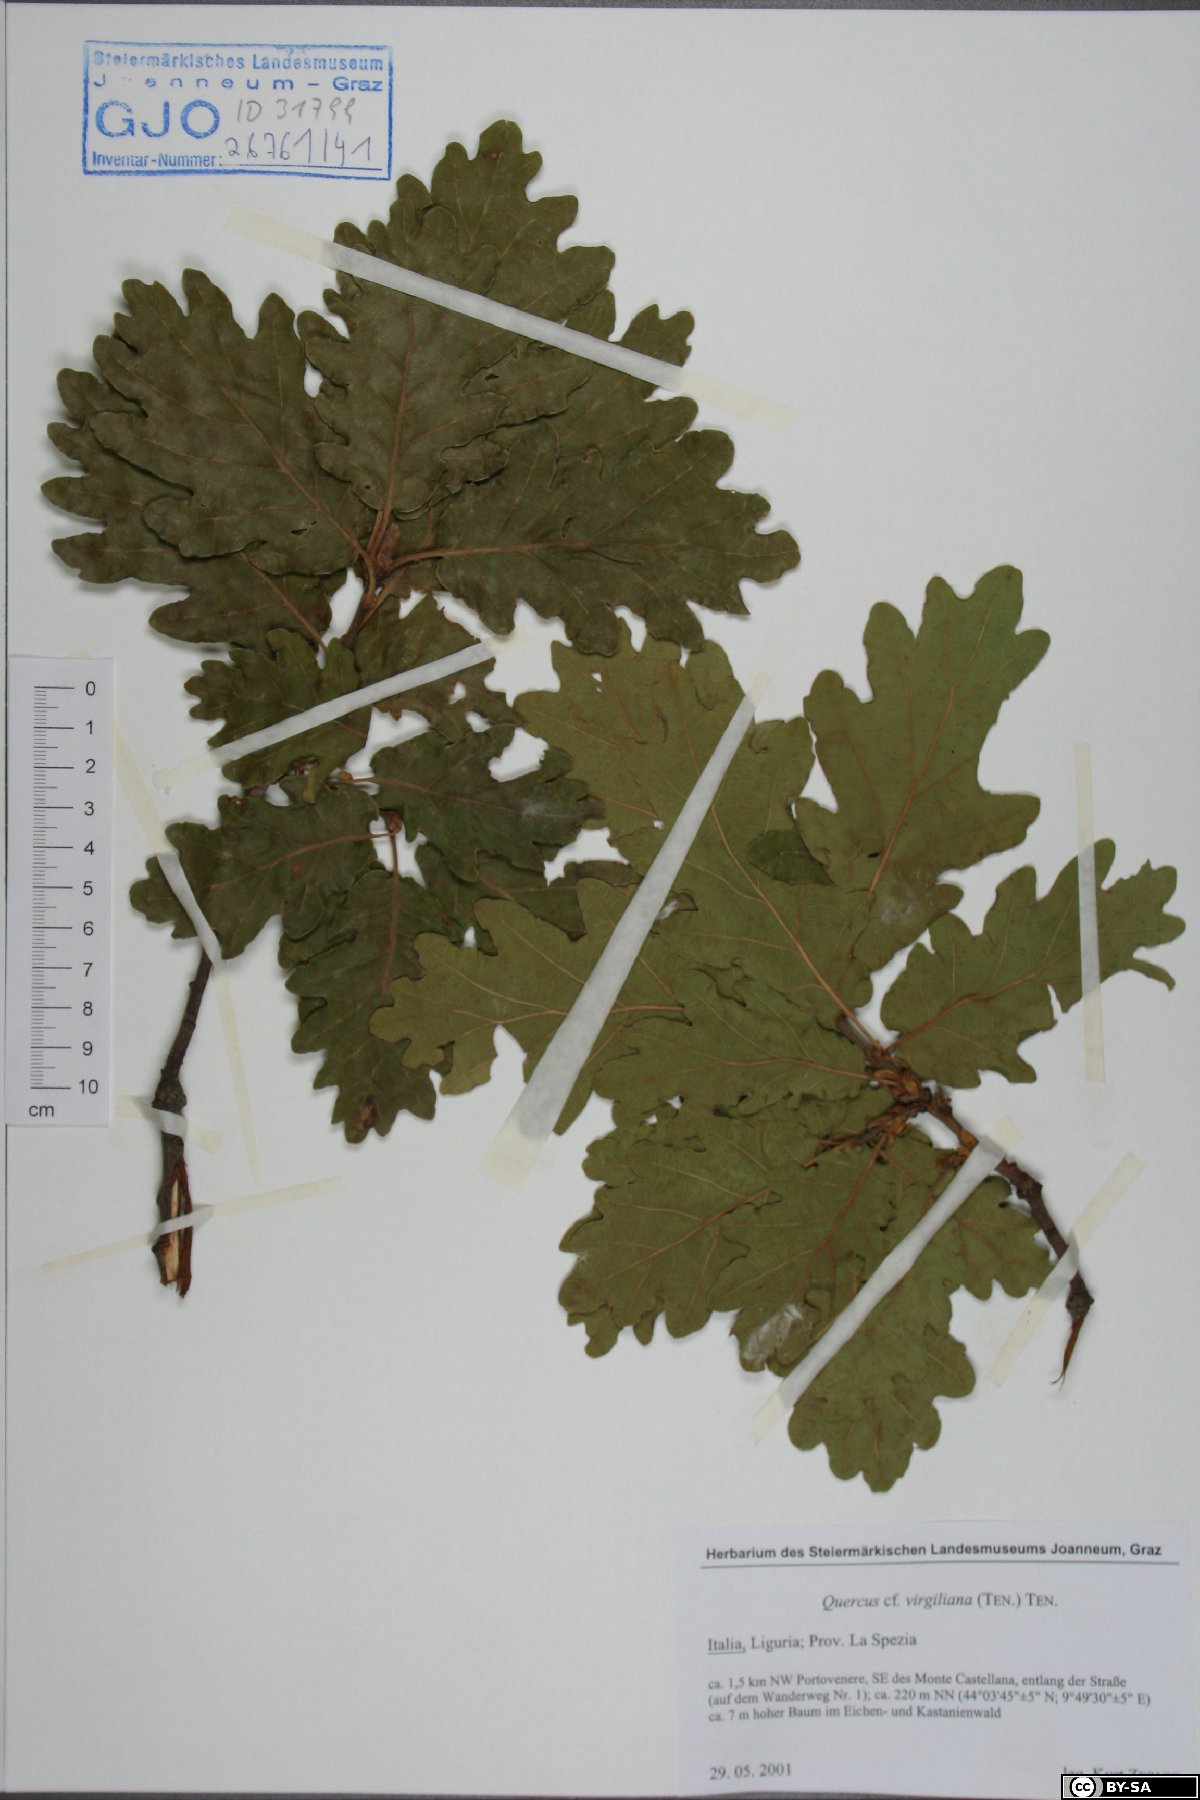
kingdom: Plantae
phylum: Tracheophyta
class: Magnoliopsida
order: Fagales
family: Fagaceae
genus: Quercus
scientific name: Quercus pubescens
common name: Downy oak
